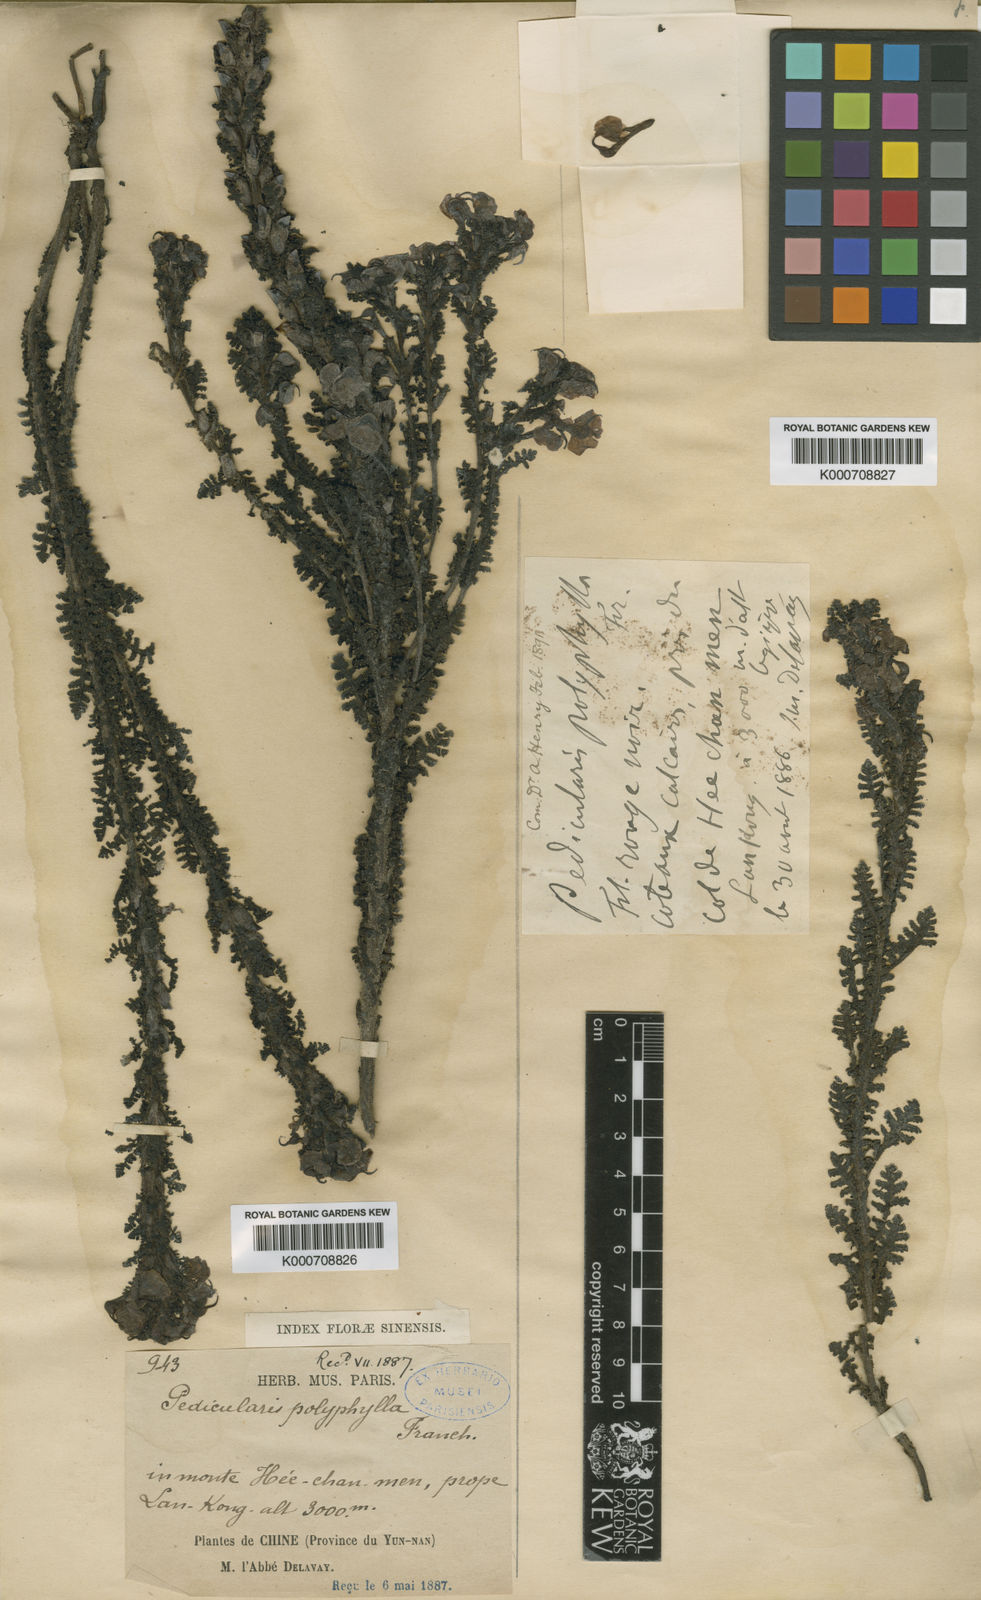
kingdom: Plantae
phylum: Tracheophyta
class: Magnoliopsida
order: Lamiales
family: Orobanchaceae
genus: Pedicularis
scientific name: Pedicularis
